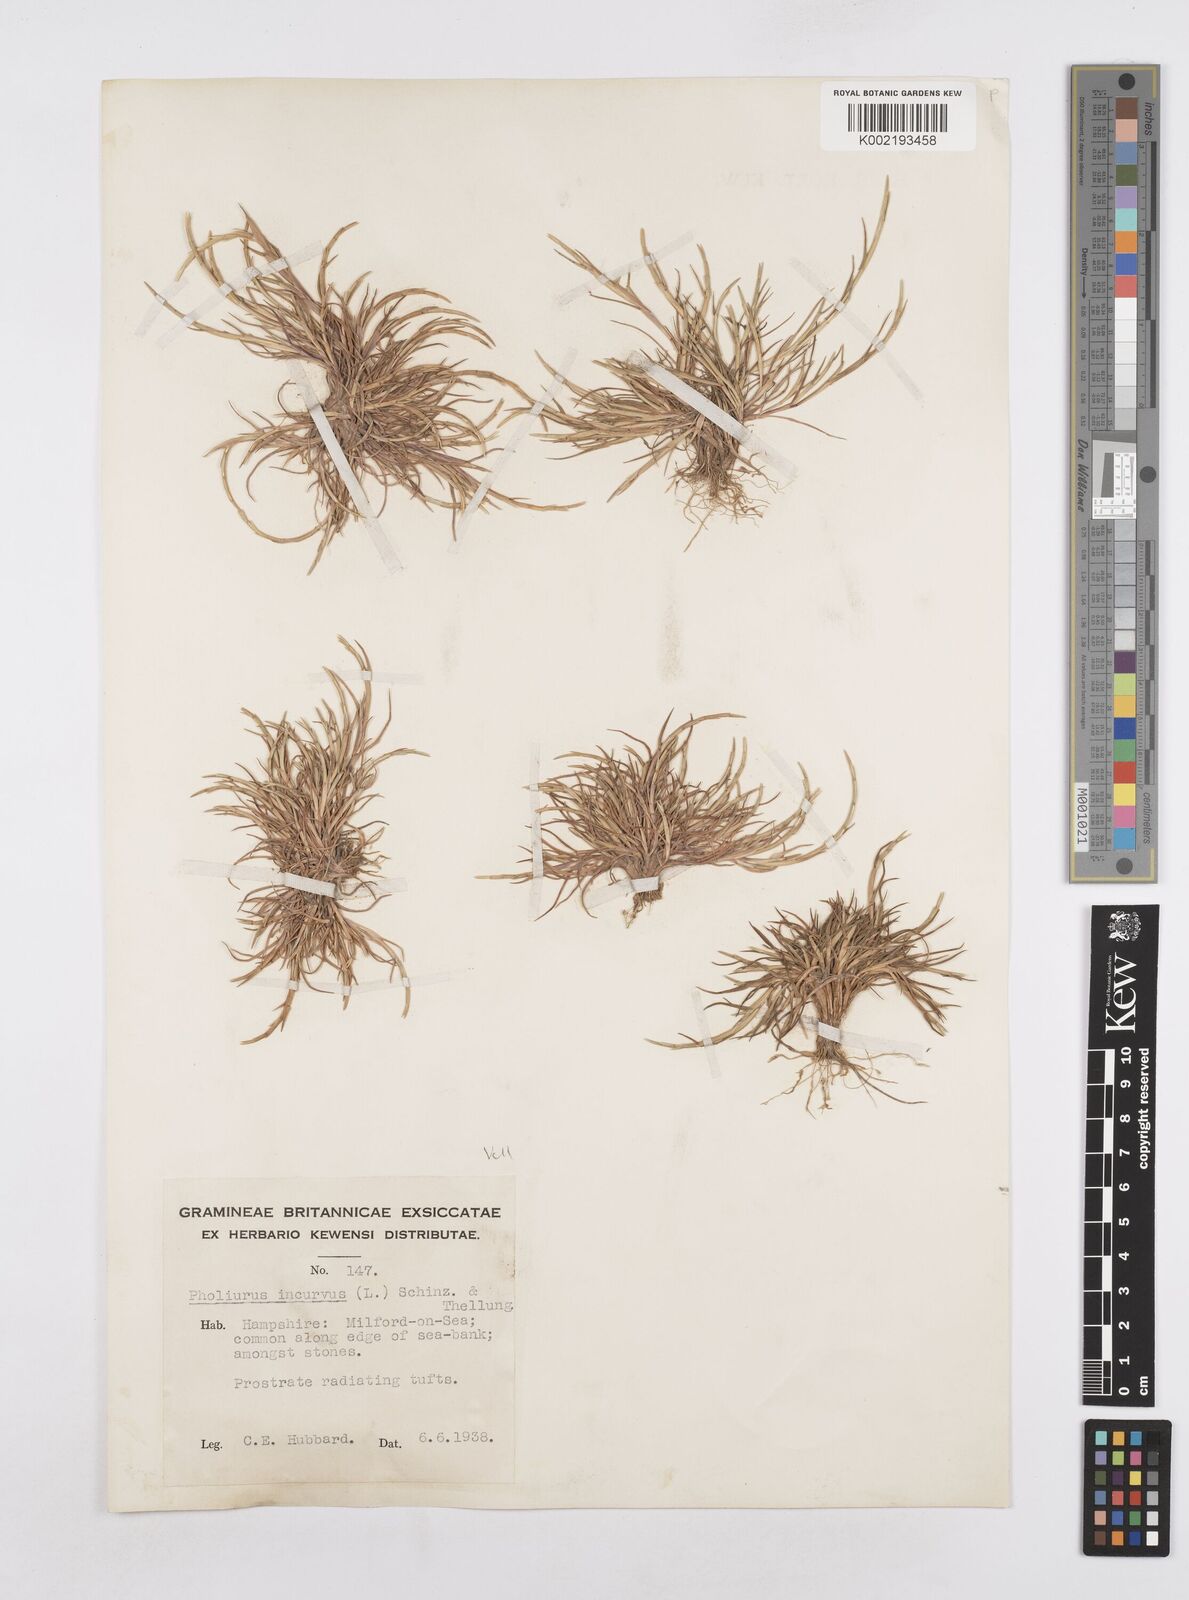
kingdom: Plantae
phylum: Tracheophyta
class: Liliopsida
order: Poales
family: Poaceae
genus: Parapholis
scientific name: Parapholis incurva
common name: Curved sicklegrass
